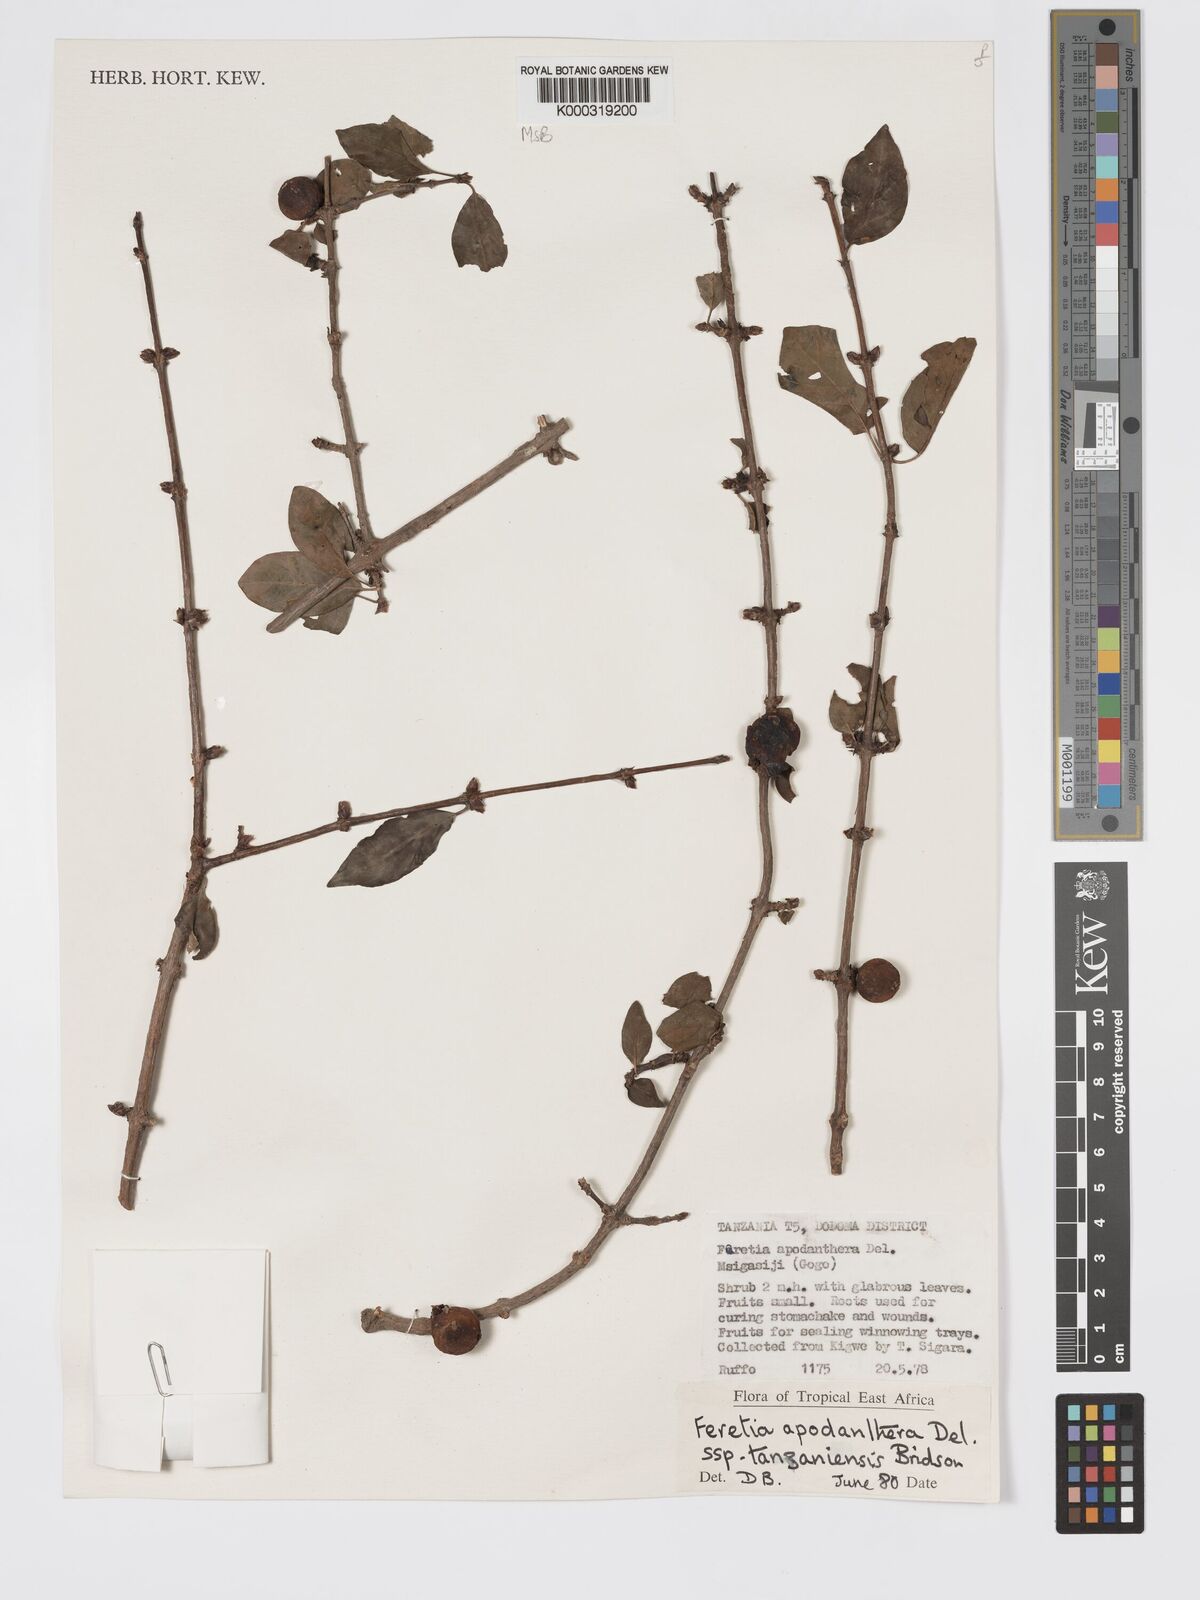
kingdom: Plantae
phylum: Tracheophyta
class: Magnoliopsida
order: Gentianales
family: Rubiaceae
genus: Feretia
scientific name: Feretia apodanthera
